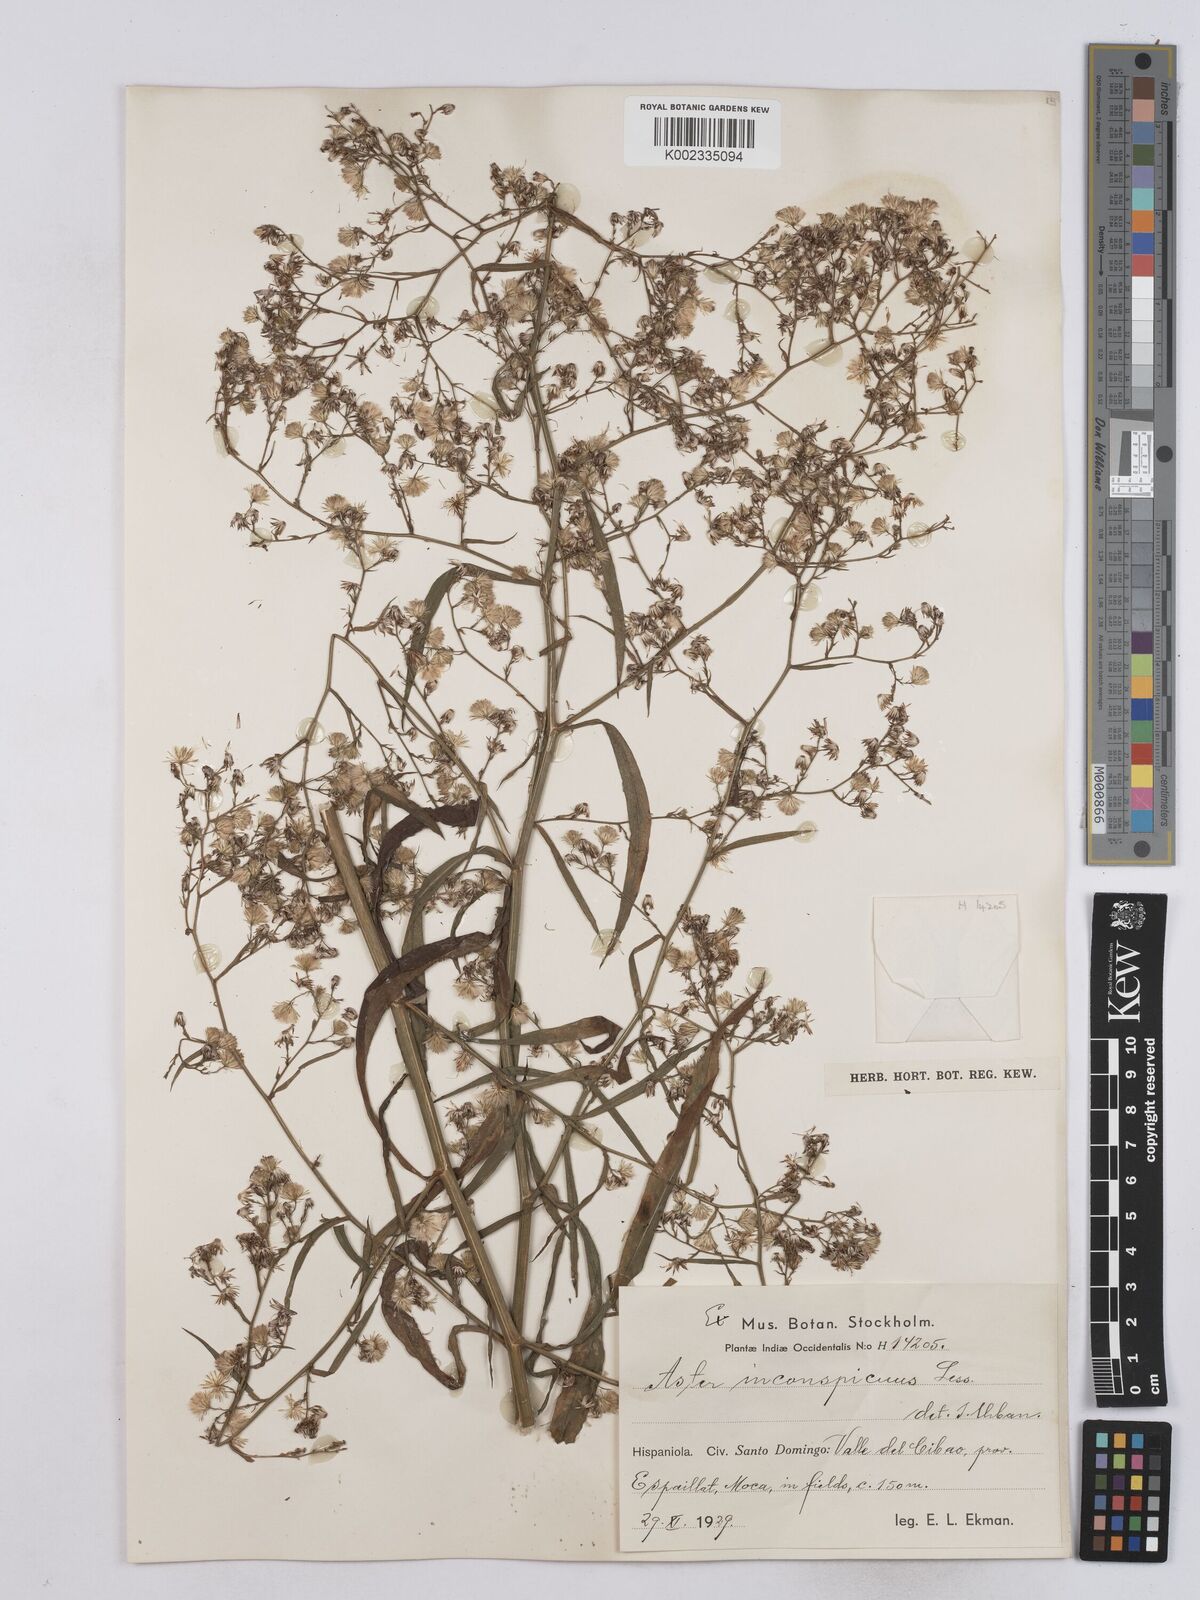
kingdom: Plantae
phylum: Tracheophyta
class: Magnoliopsida
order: Asterales
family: Asteraceae
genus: Symphyotrichum
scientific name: Symphyotrichum expansum
